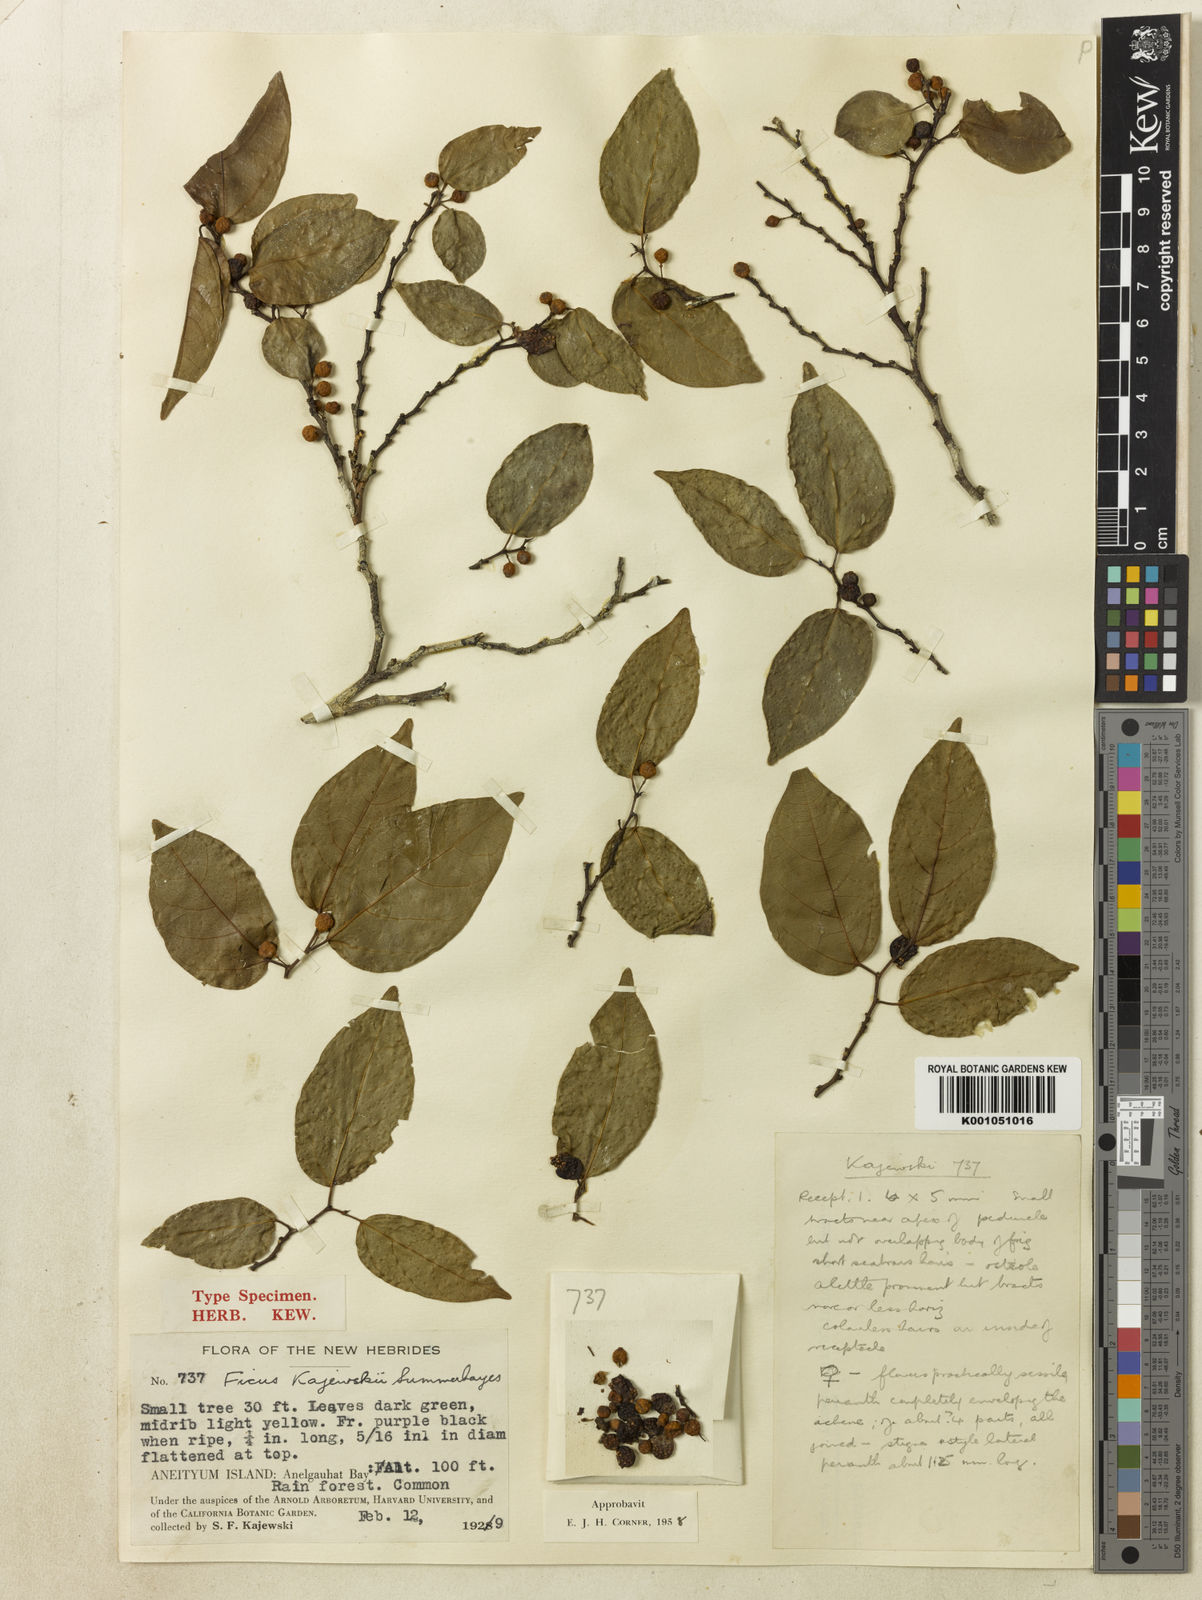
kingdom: Plantae
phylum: Tracheophyta
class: Magnoliopsida
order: Rosales
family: Moraceae
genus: Ficus
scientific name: Ficus storckii
